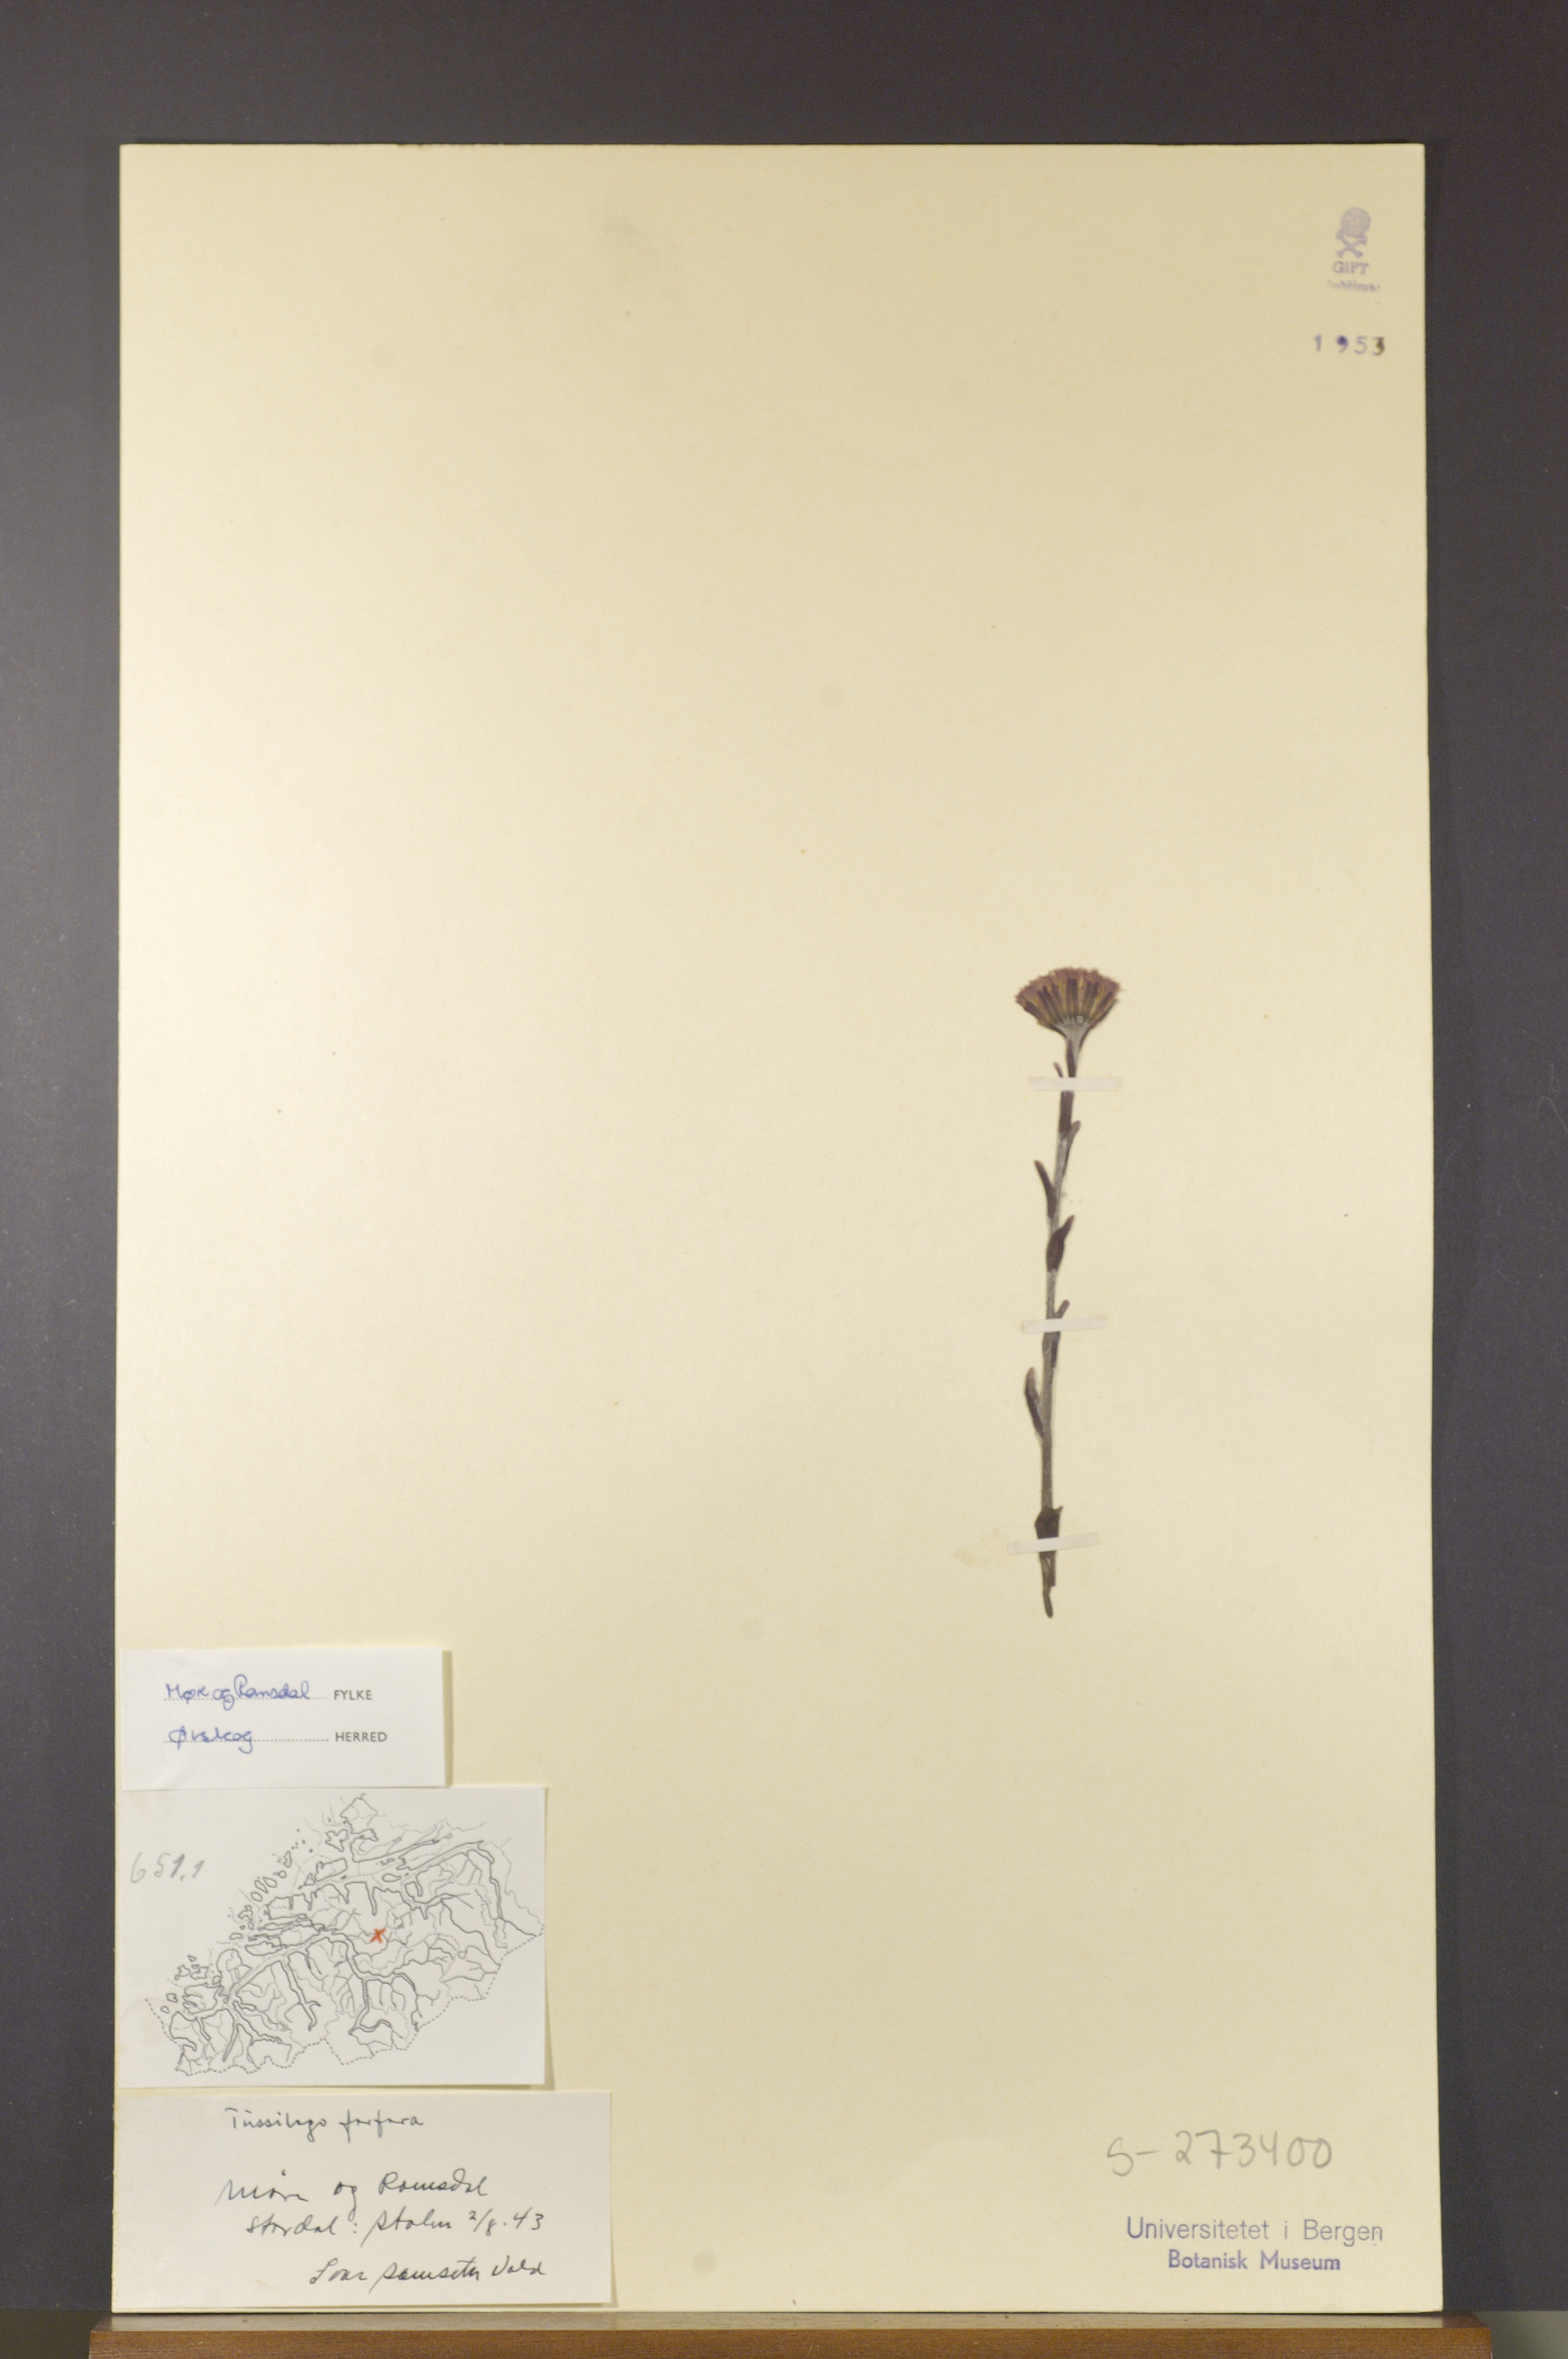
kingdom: Plantae
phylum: Tracheophyta
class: Magnoliopsida
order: Asterales
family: Asteraceae
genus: Tussilago
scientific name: Tussilago farfara
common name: Coltsfoot
